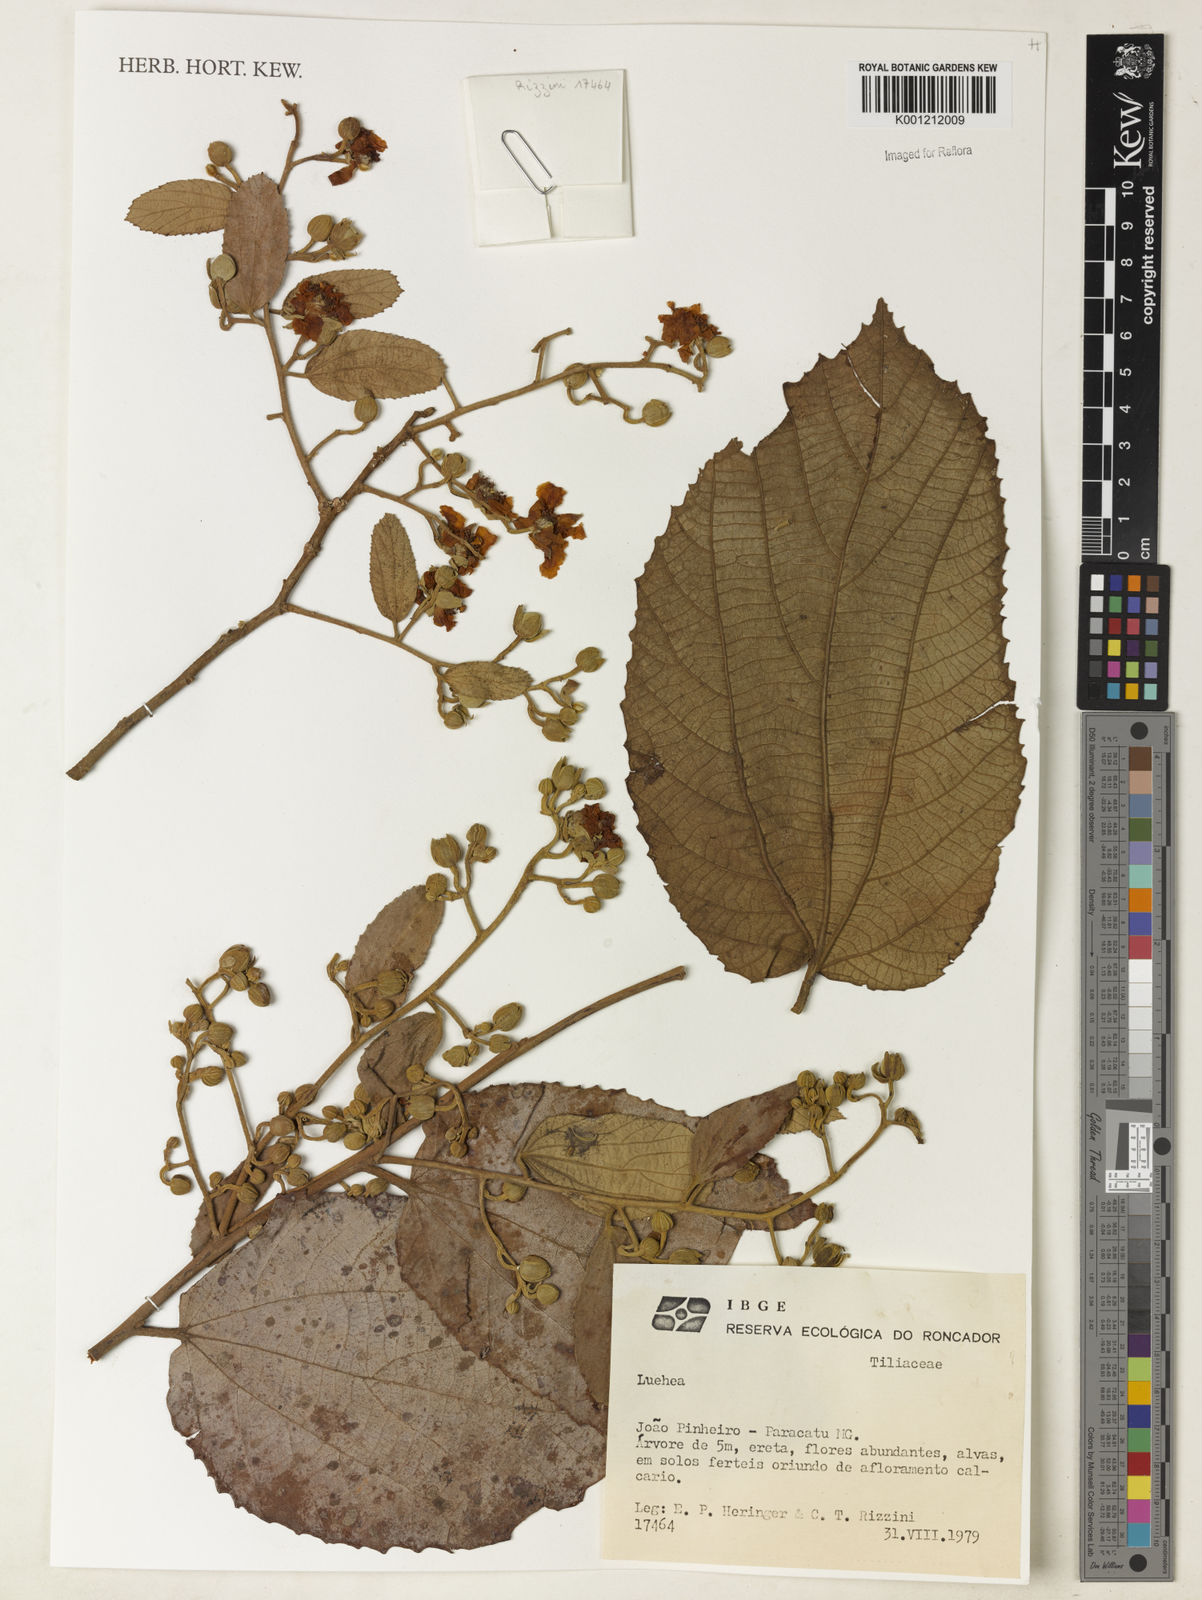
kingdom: Plantae
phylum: Tracheophyta
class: Magnoliopsida
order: Malvales
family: Malvaceae
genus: Luehea
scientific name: Luehea
